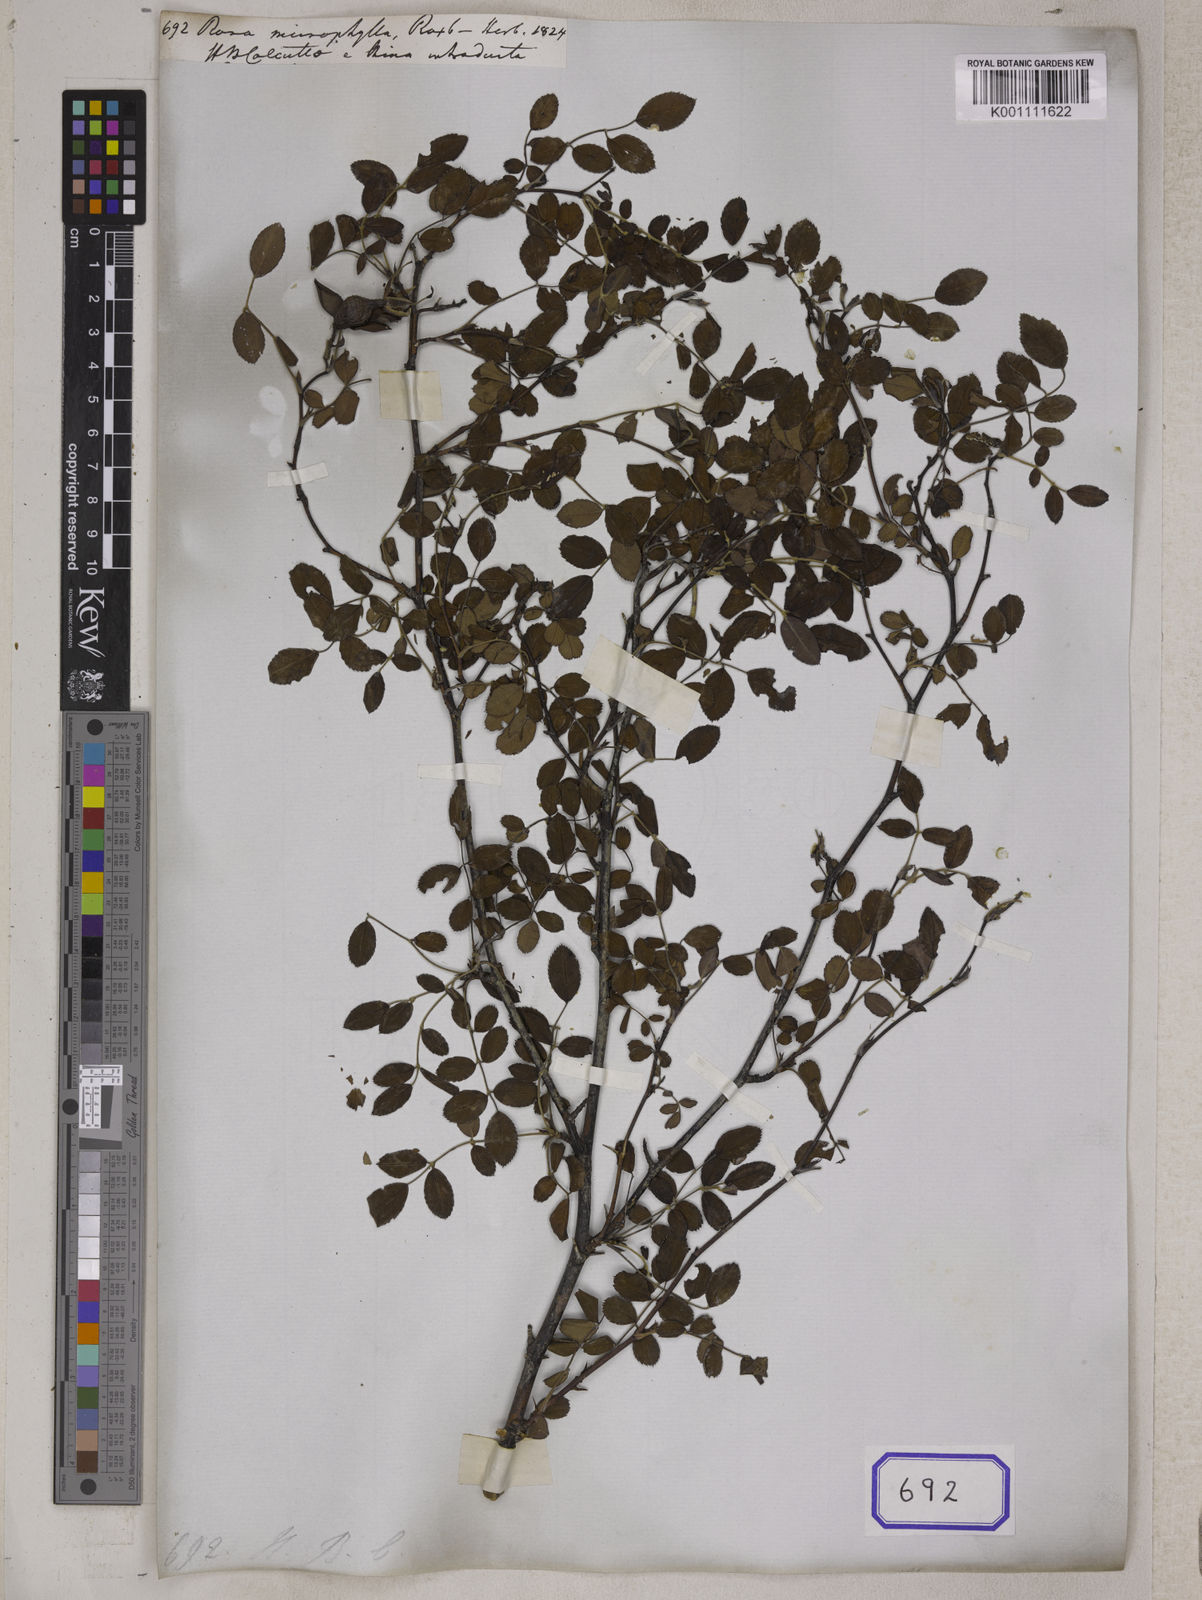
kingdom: Plantae
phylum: Tracheophyta
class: Magnoliopsida
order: Rosales
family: Rosaceae
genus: Rosa
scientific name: Rosa
